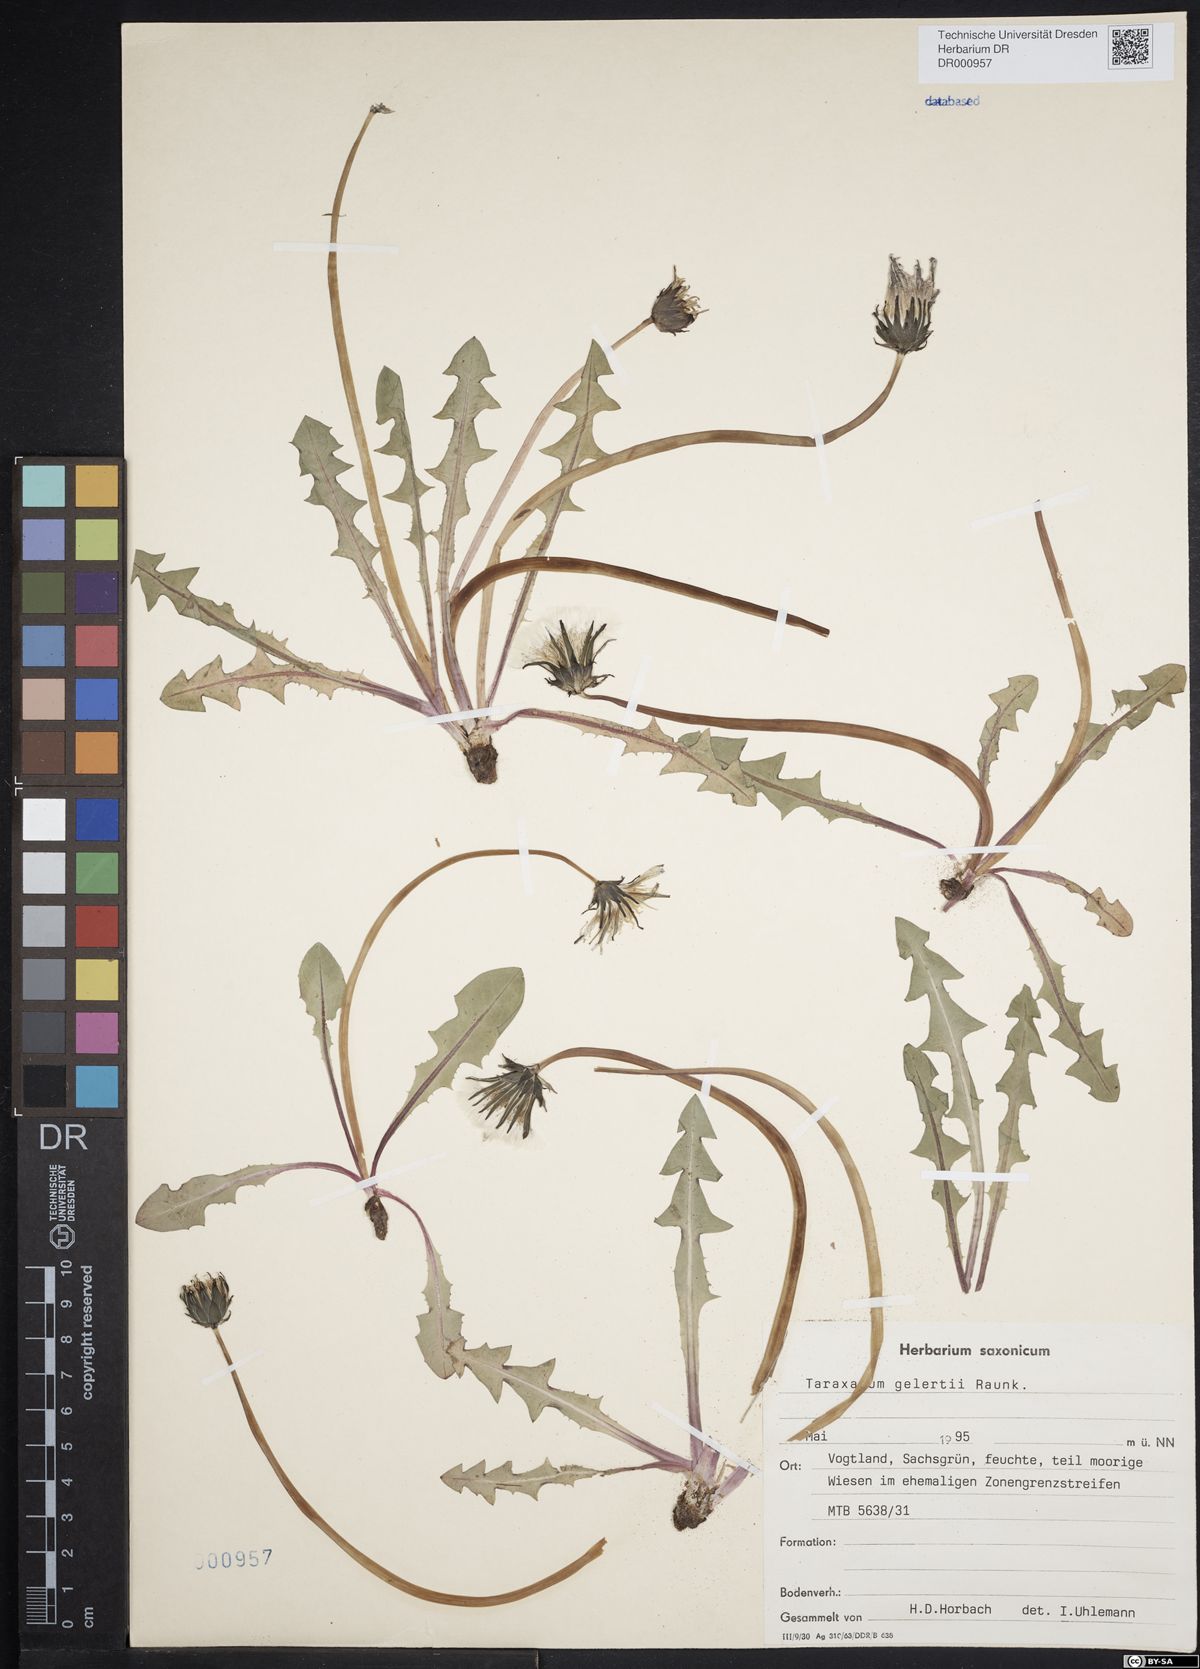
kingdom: Plantae
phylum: Tracheophyta
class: Magnoliopsida
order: Asterales
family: Asteraceae
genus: Taraxacum
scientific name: Taraxacum gelertii
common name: Gelert's dandelion
